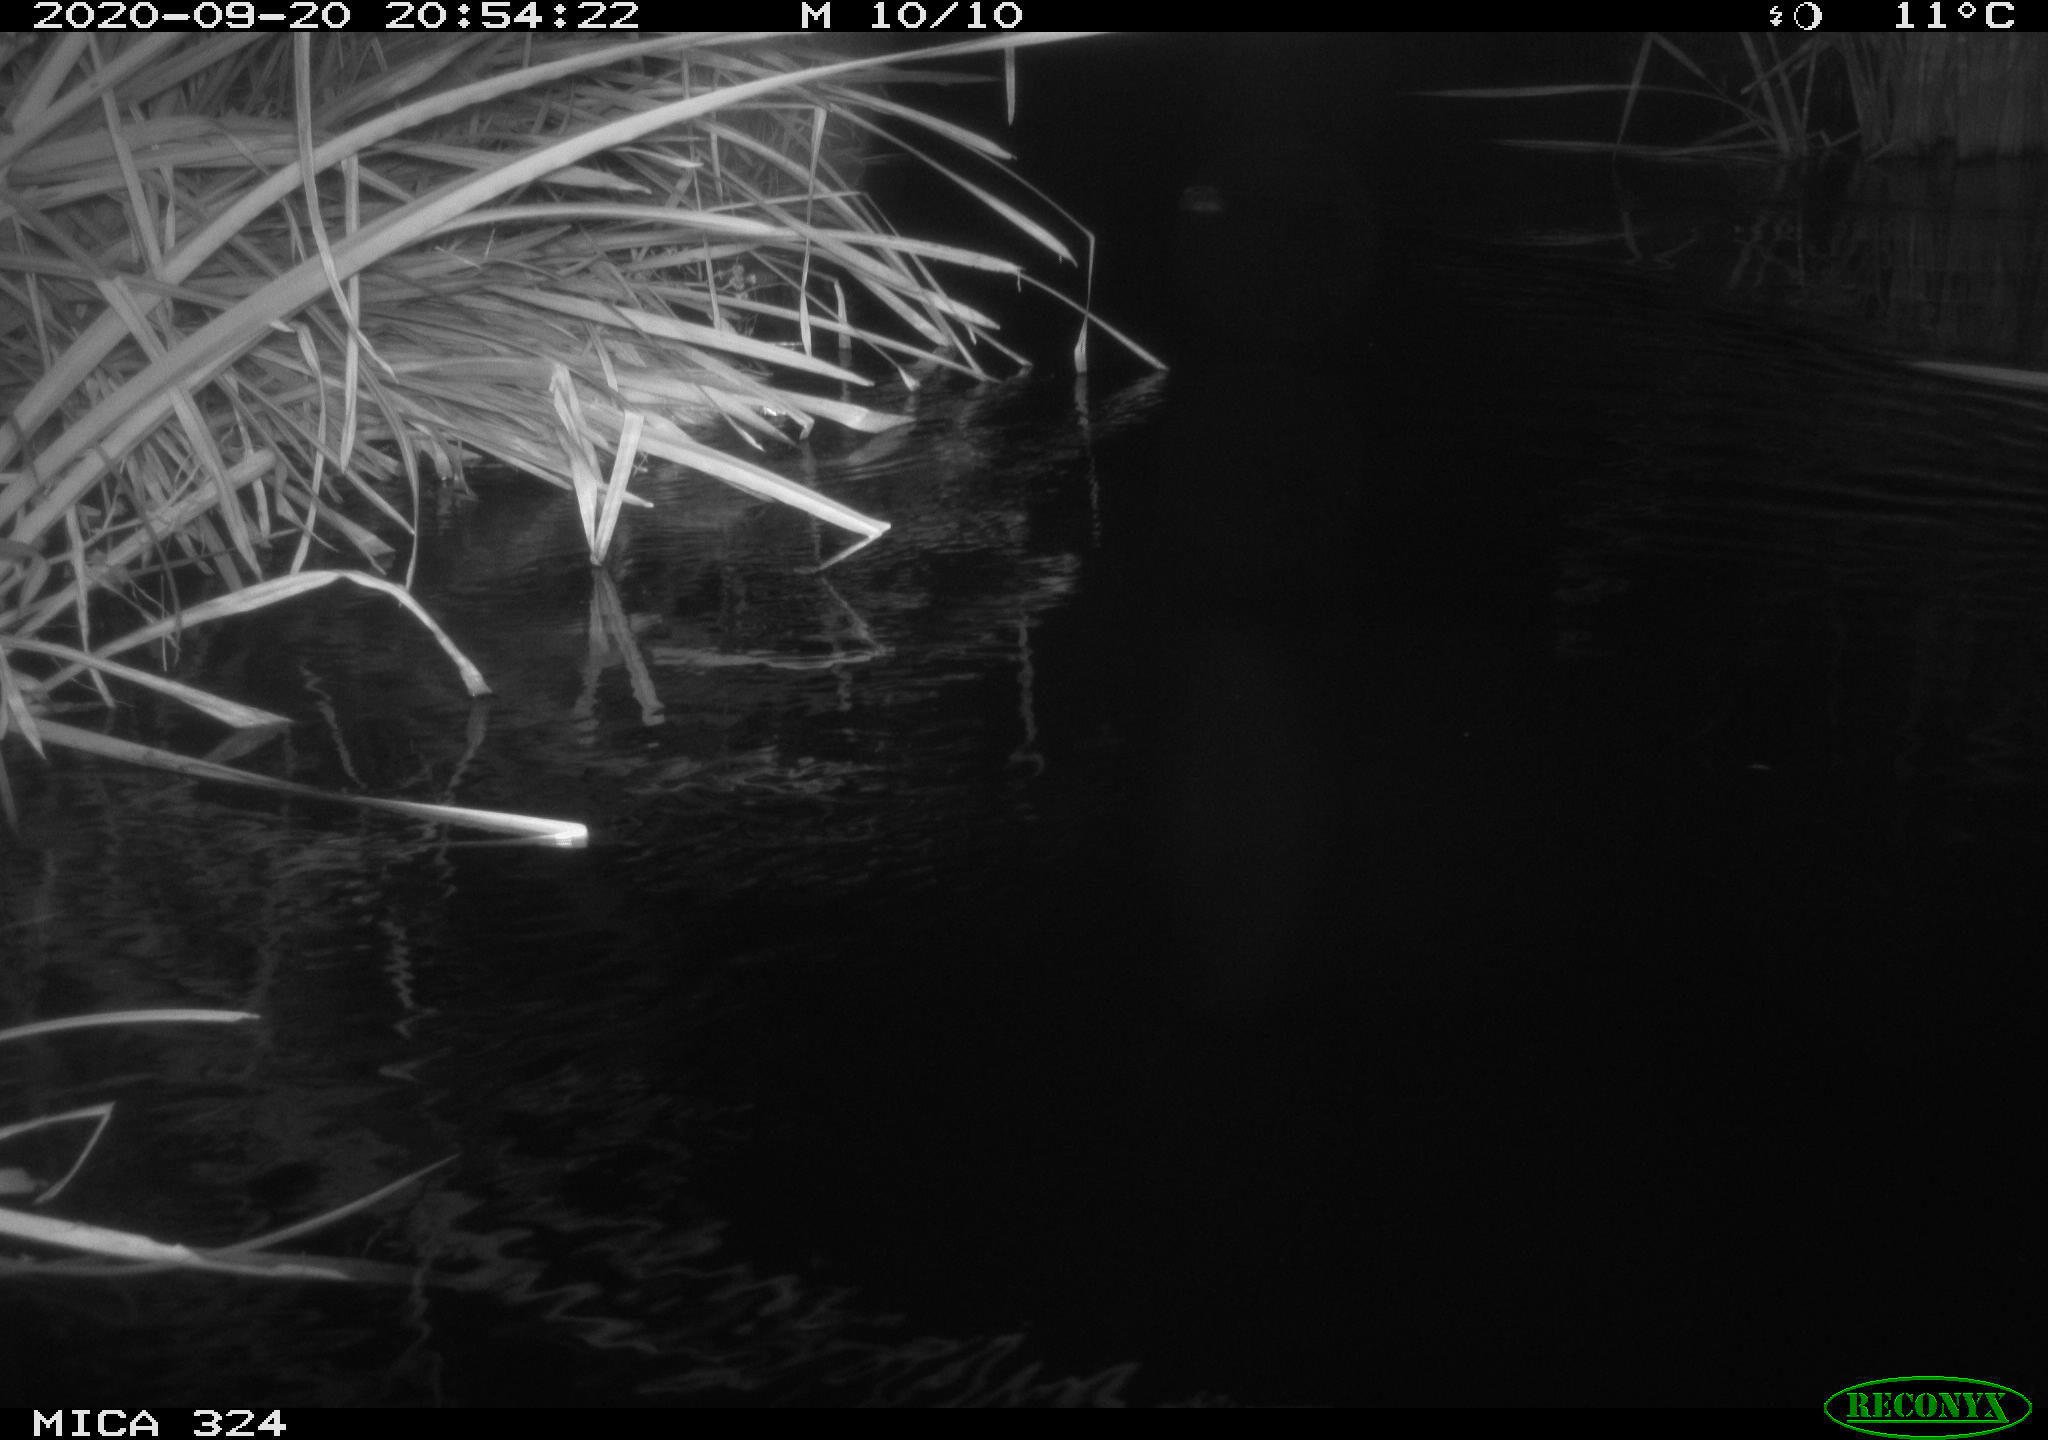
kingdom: Animalia
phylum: Chordata
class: Mammalia
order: Rodentia
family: Cricetidae
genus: Ondatra
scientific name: Ondatra zibethicus
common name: Muskrat
